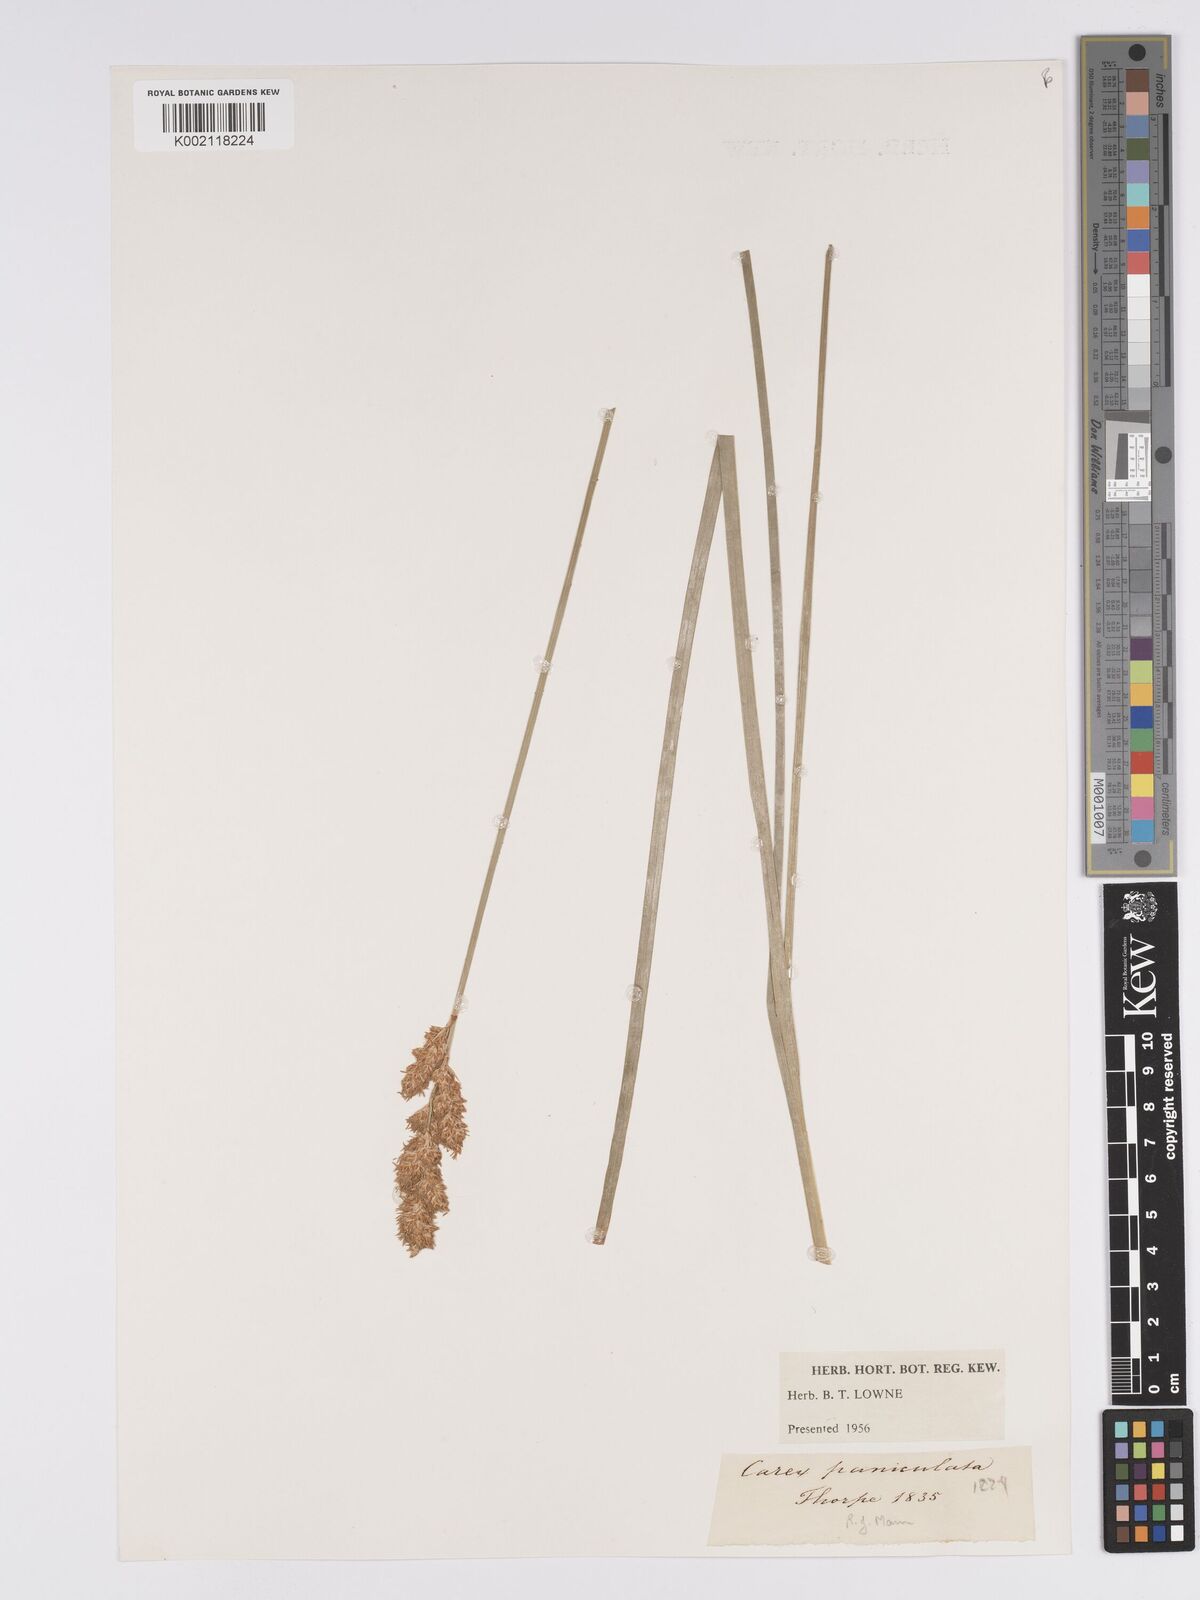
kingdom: Plantae
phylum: Tracheophyta
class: Liliopsida
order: Poales
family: Cyperaceae
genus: Carex
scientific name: Carex paniculata
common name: Greater tussock-sedge
